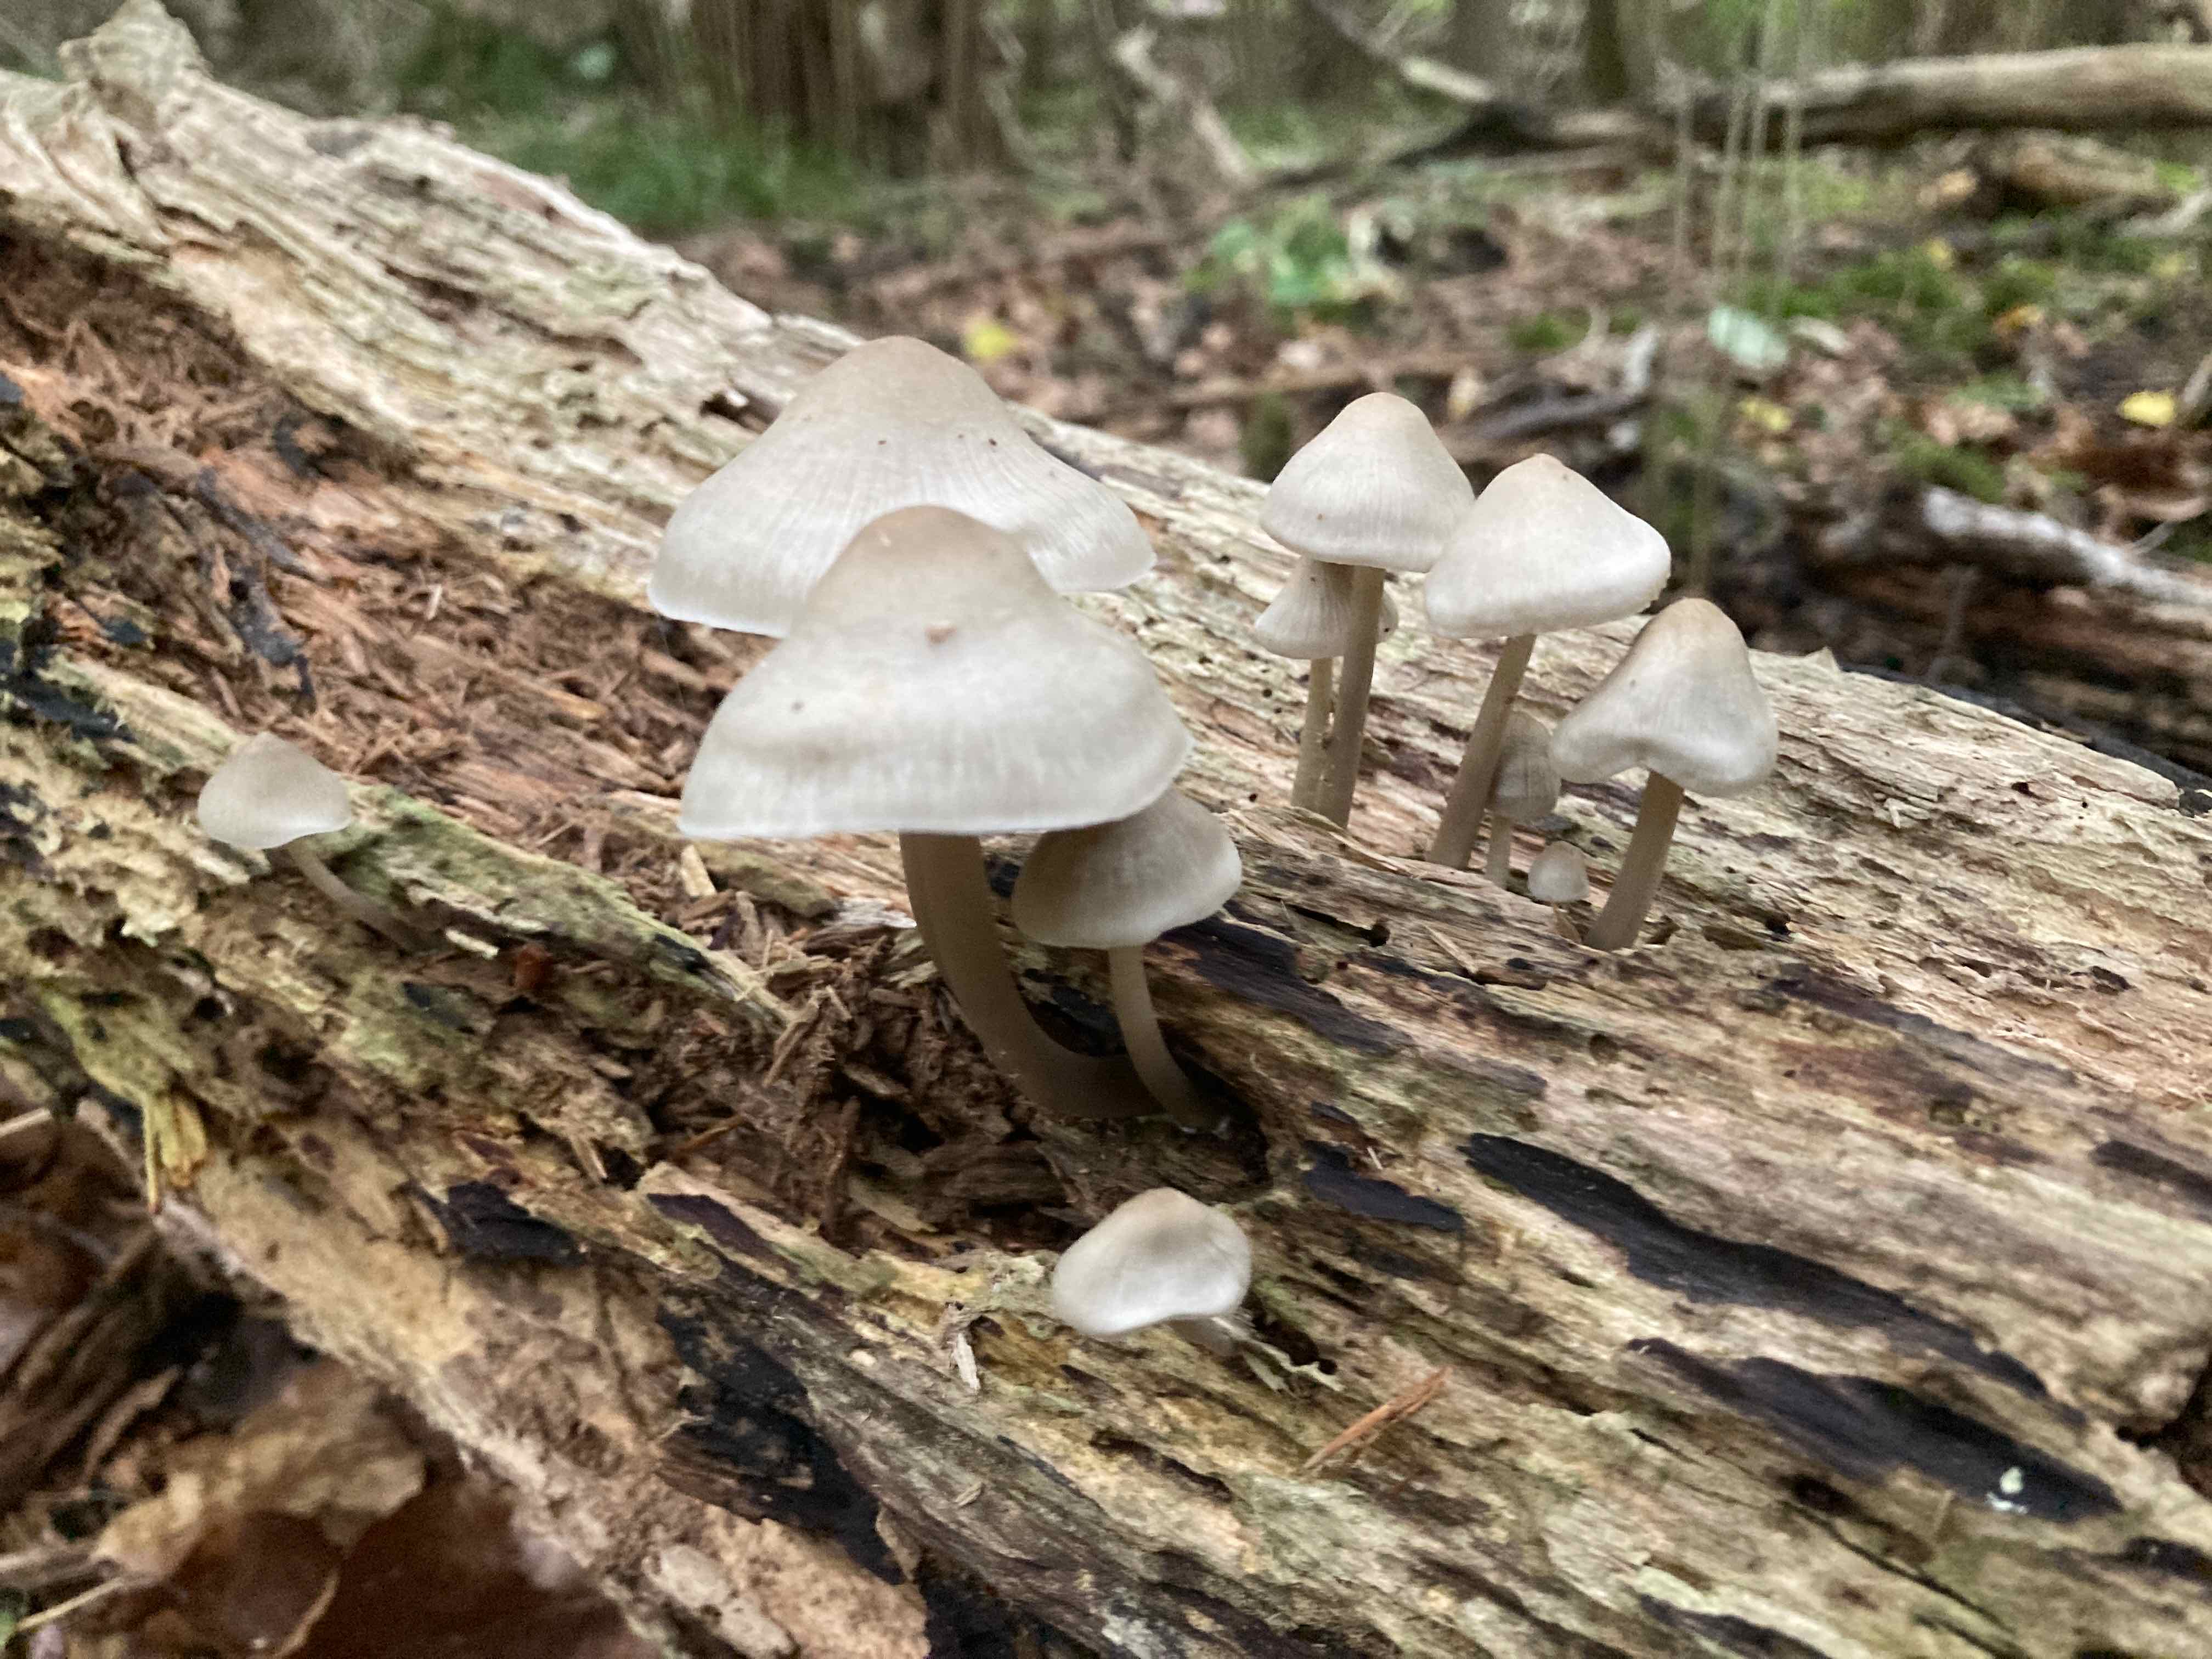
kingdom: Fungi
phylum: Basidiomycota
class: Agaricomycetes
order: Agaricales
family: Mycenaceae
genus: Mycena
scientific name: Mycena galericulata
